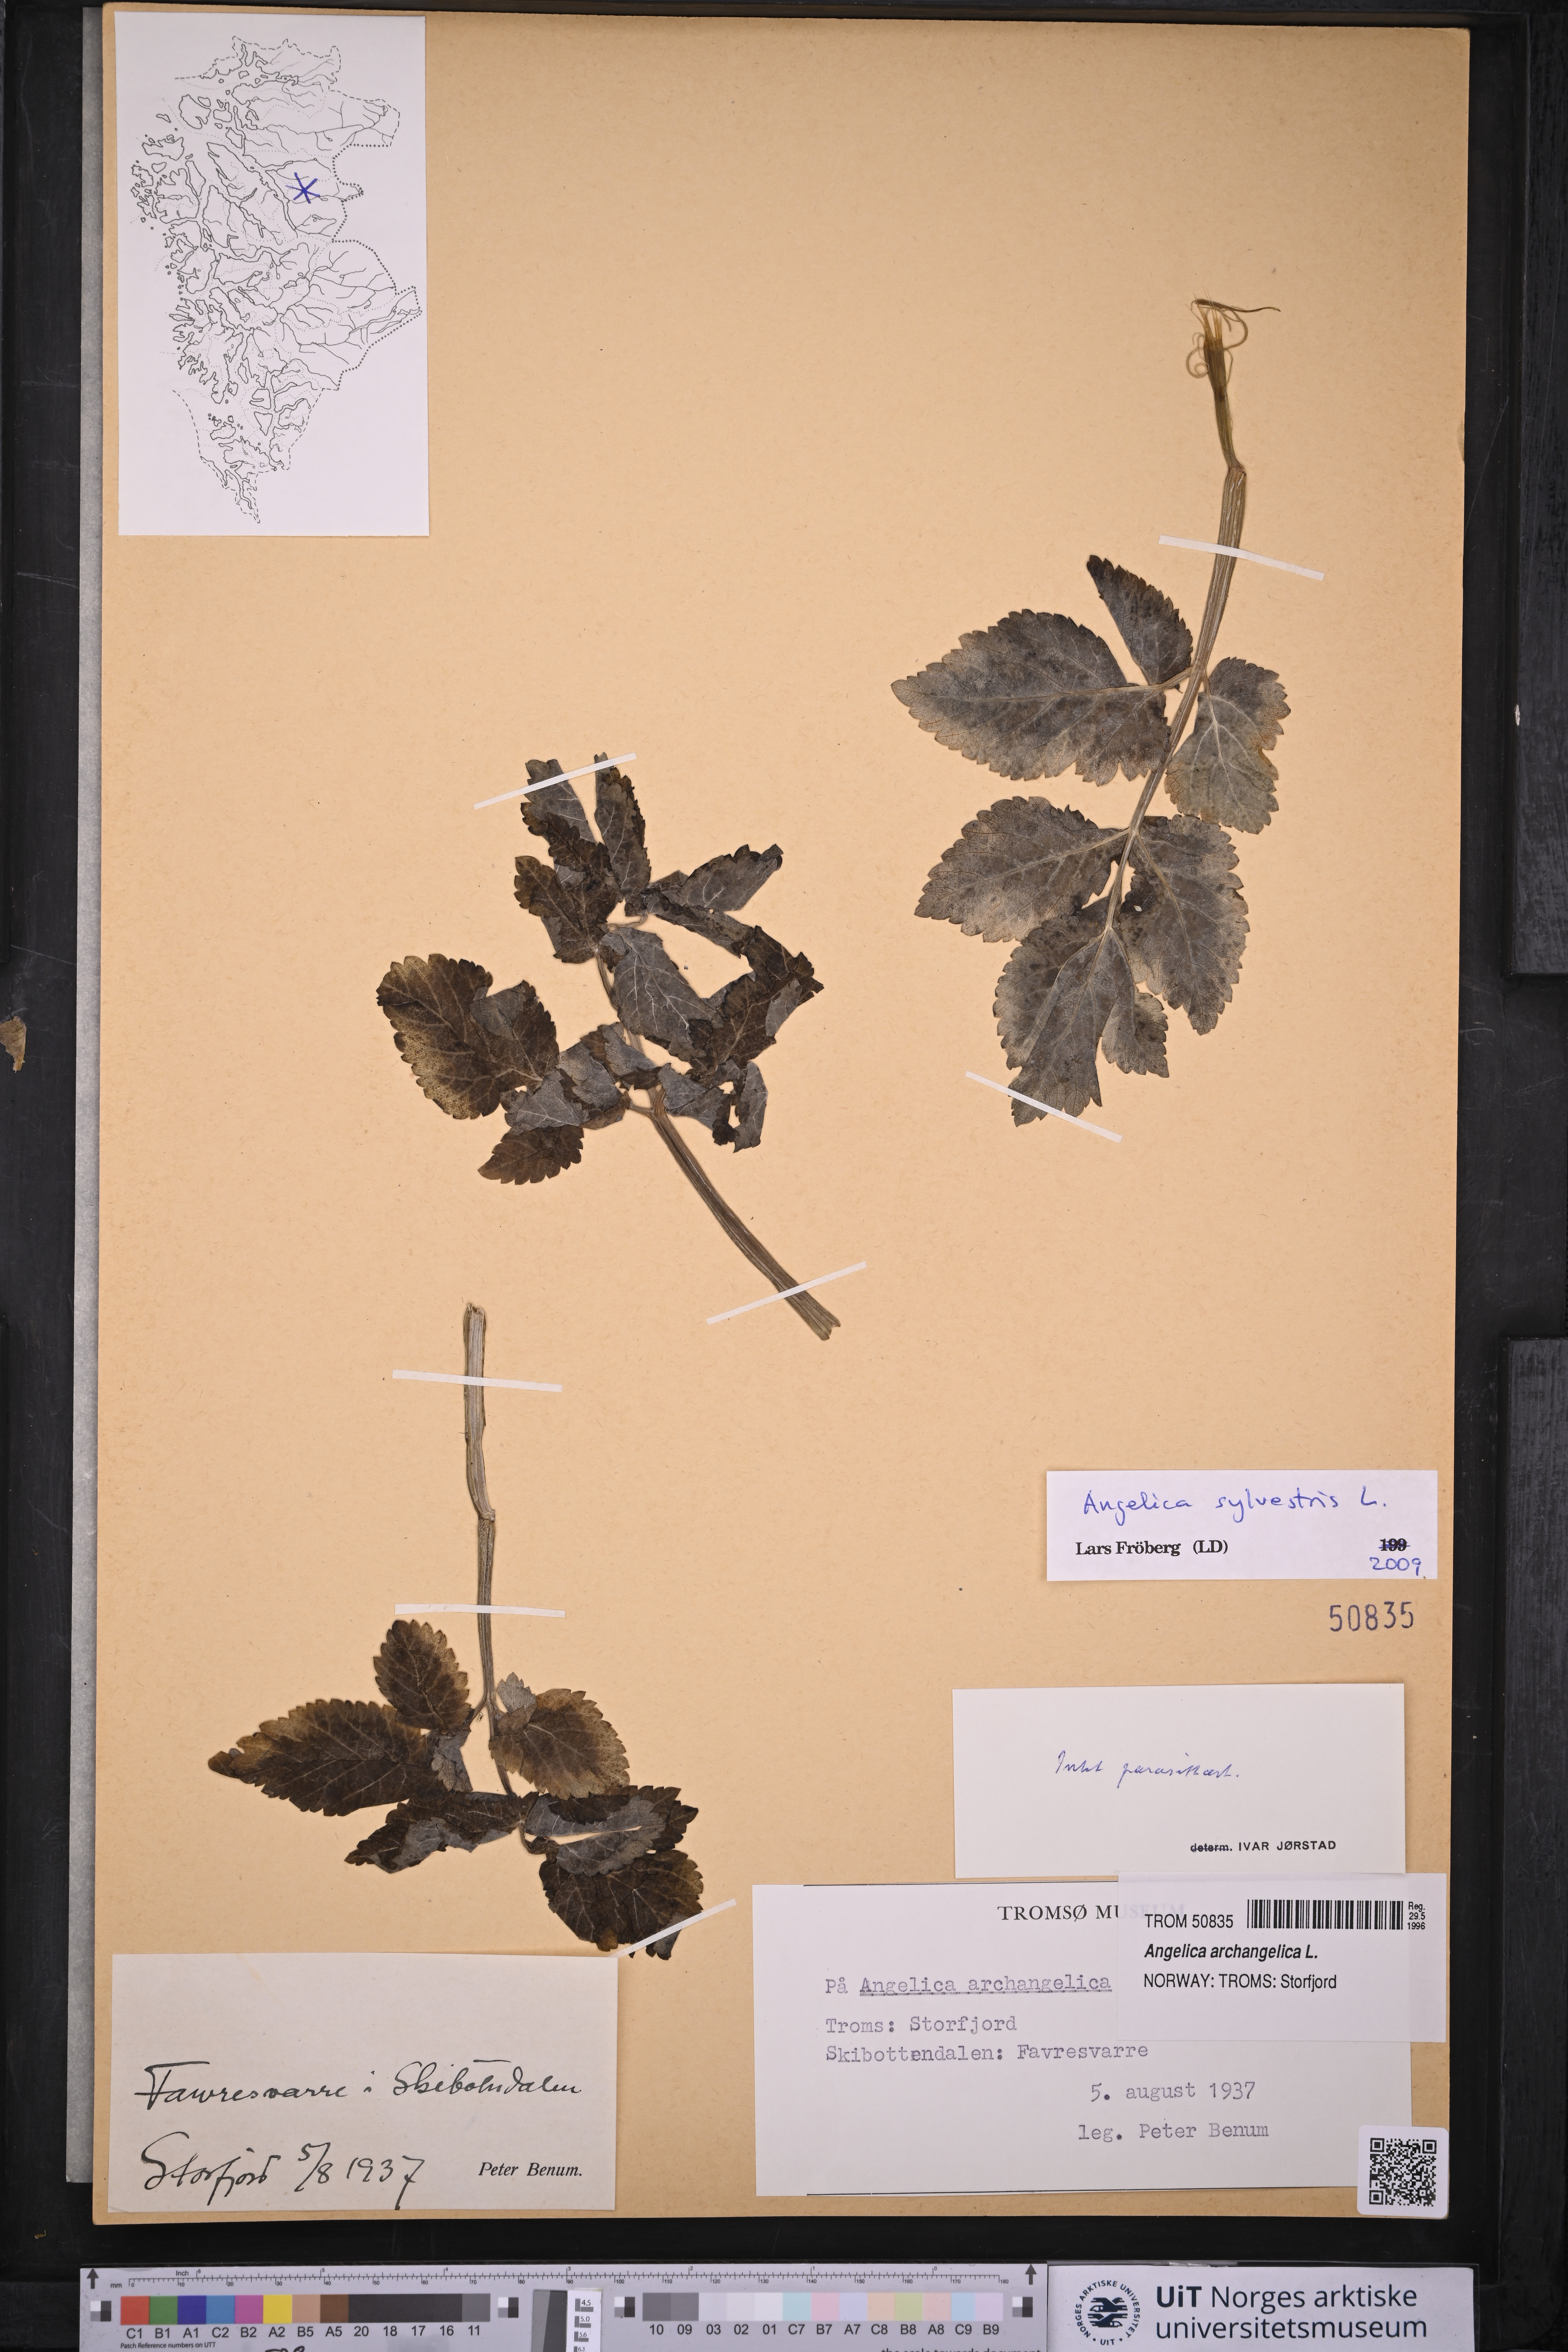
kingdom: Plantae
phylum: Tracheophyta
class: Magnoliopsida
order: Apiales
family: Apiaceae
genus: Angelica
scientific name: Angelica sylvestris
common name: Wild angelica
